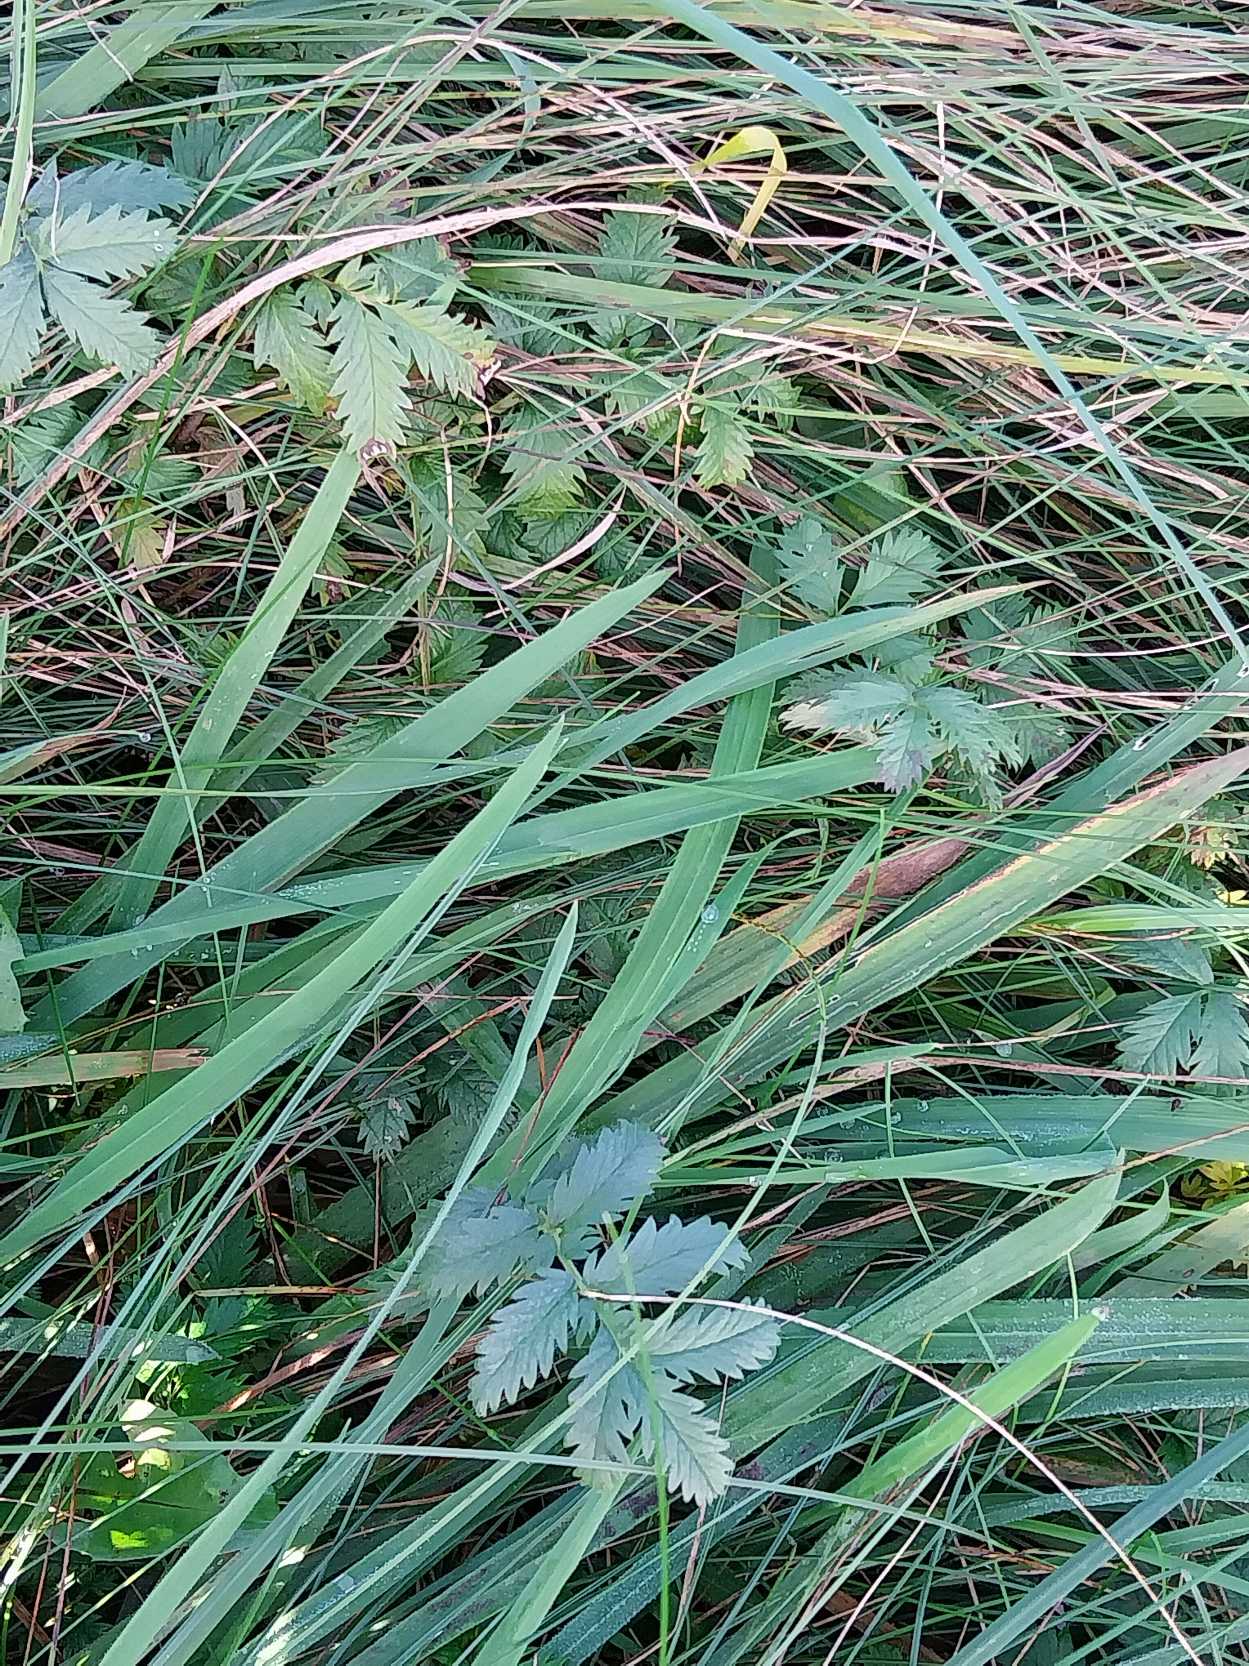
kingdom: Plantae
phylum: Tracheophyta
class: Magnoliopsida
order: Rosales
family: Rosaceae
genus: Argentina
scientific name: Argentina anserina
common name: Gåsepotentil
